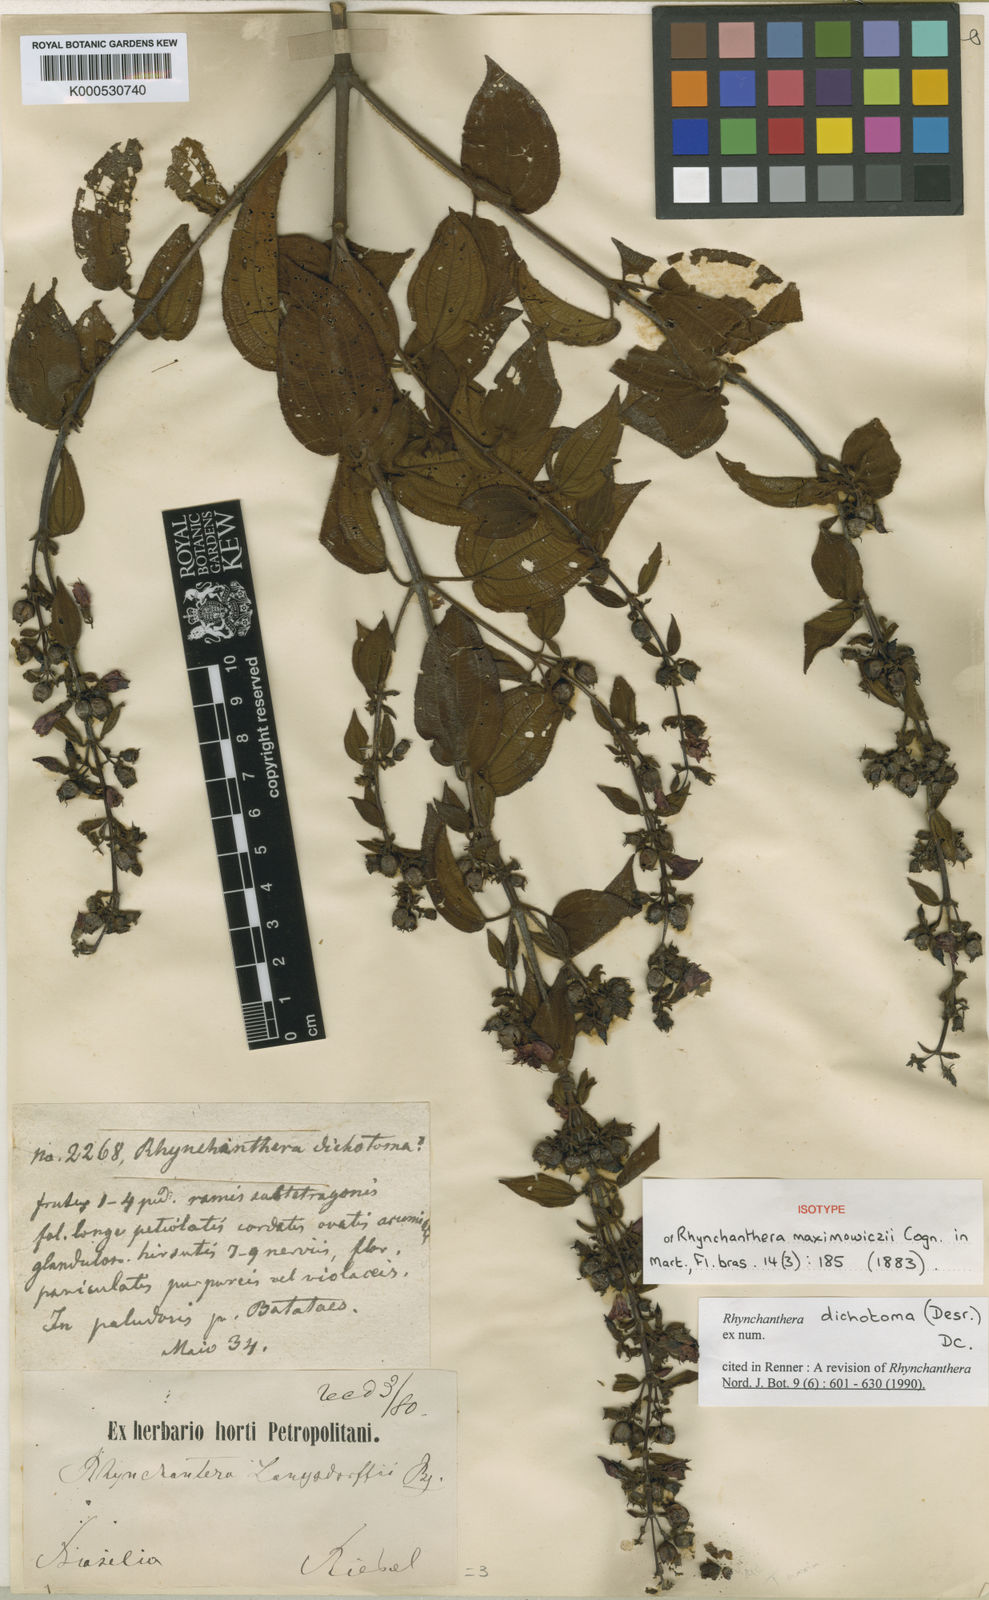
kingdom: Plantae
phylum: Tracheophyta
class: Magnoliopsida
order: Myrtales
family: Melastomataceae
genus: Rhynchanthera
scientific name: Rhynchanthera dichotoma
